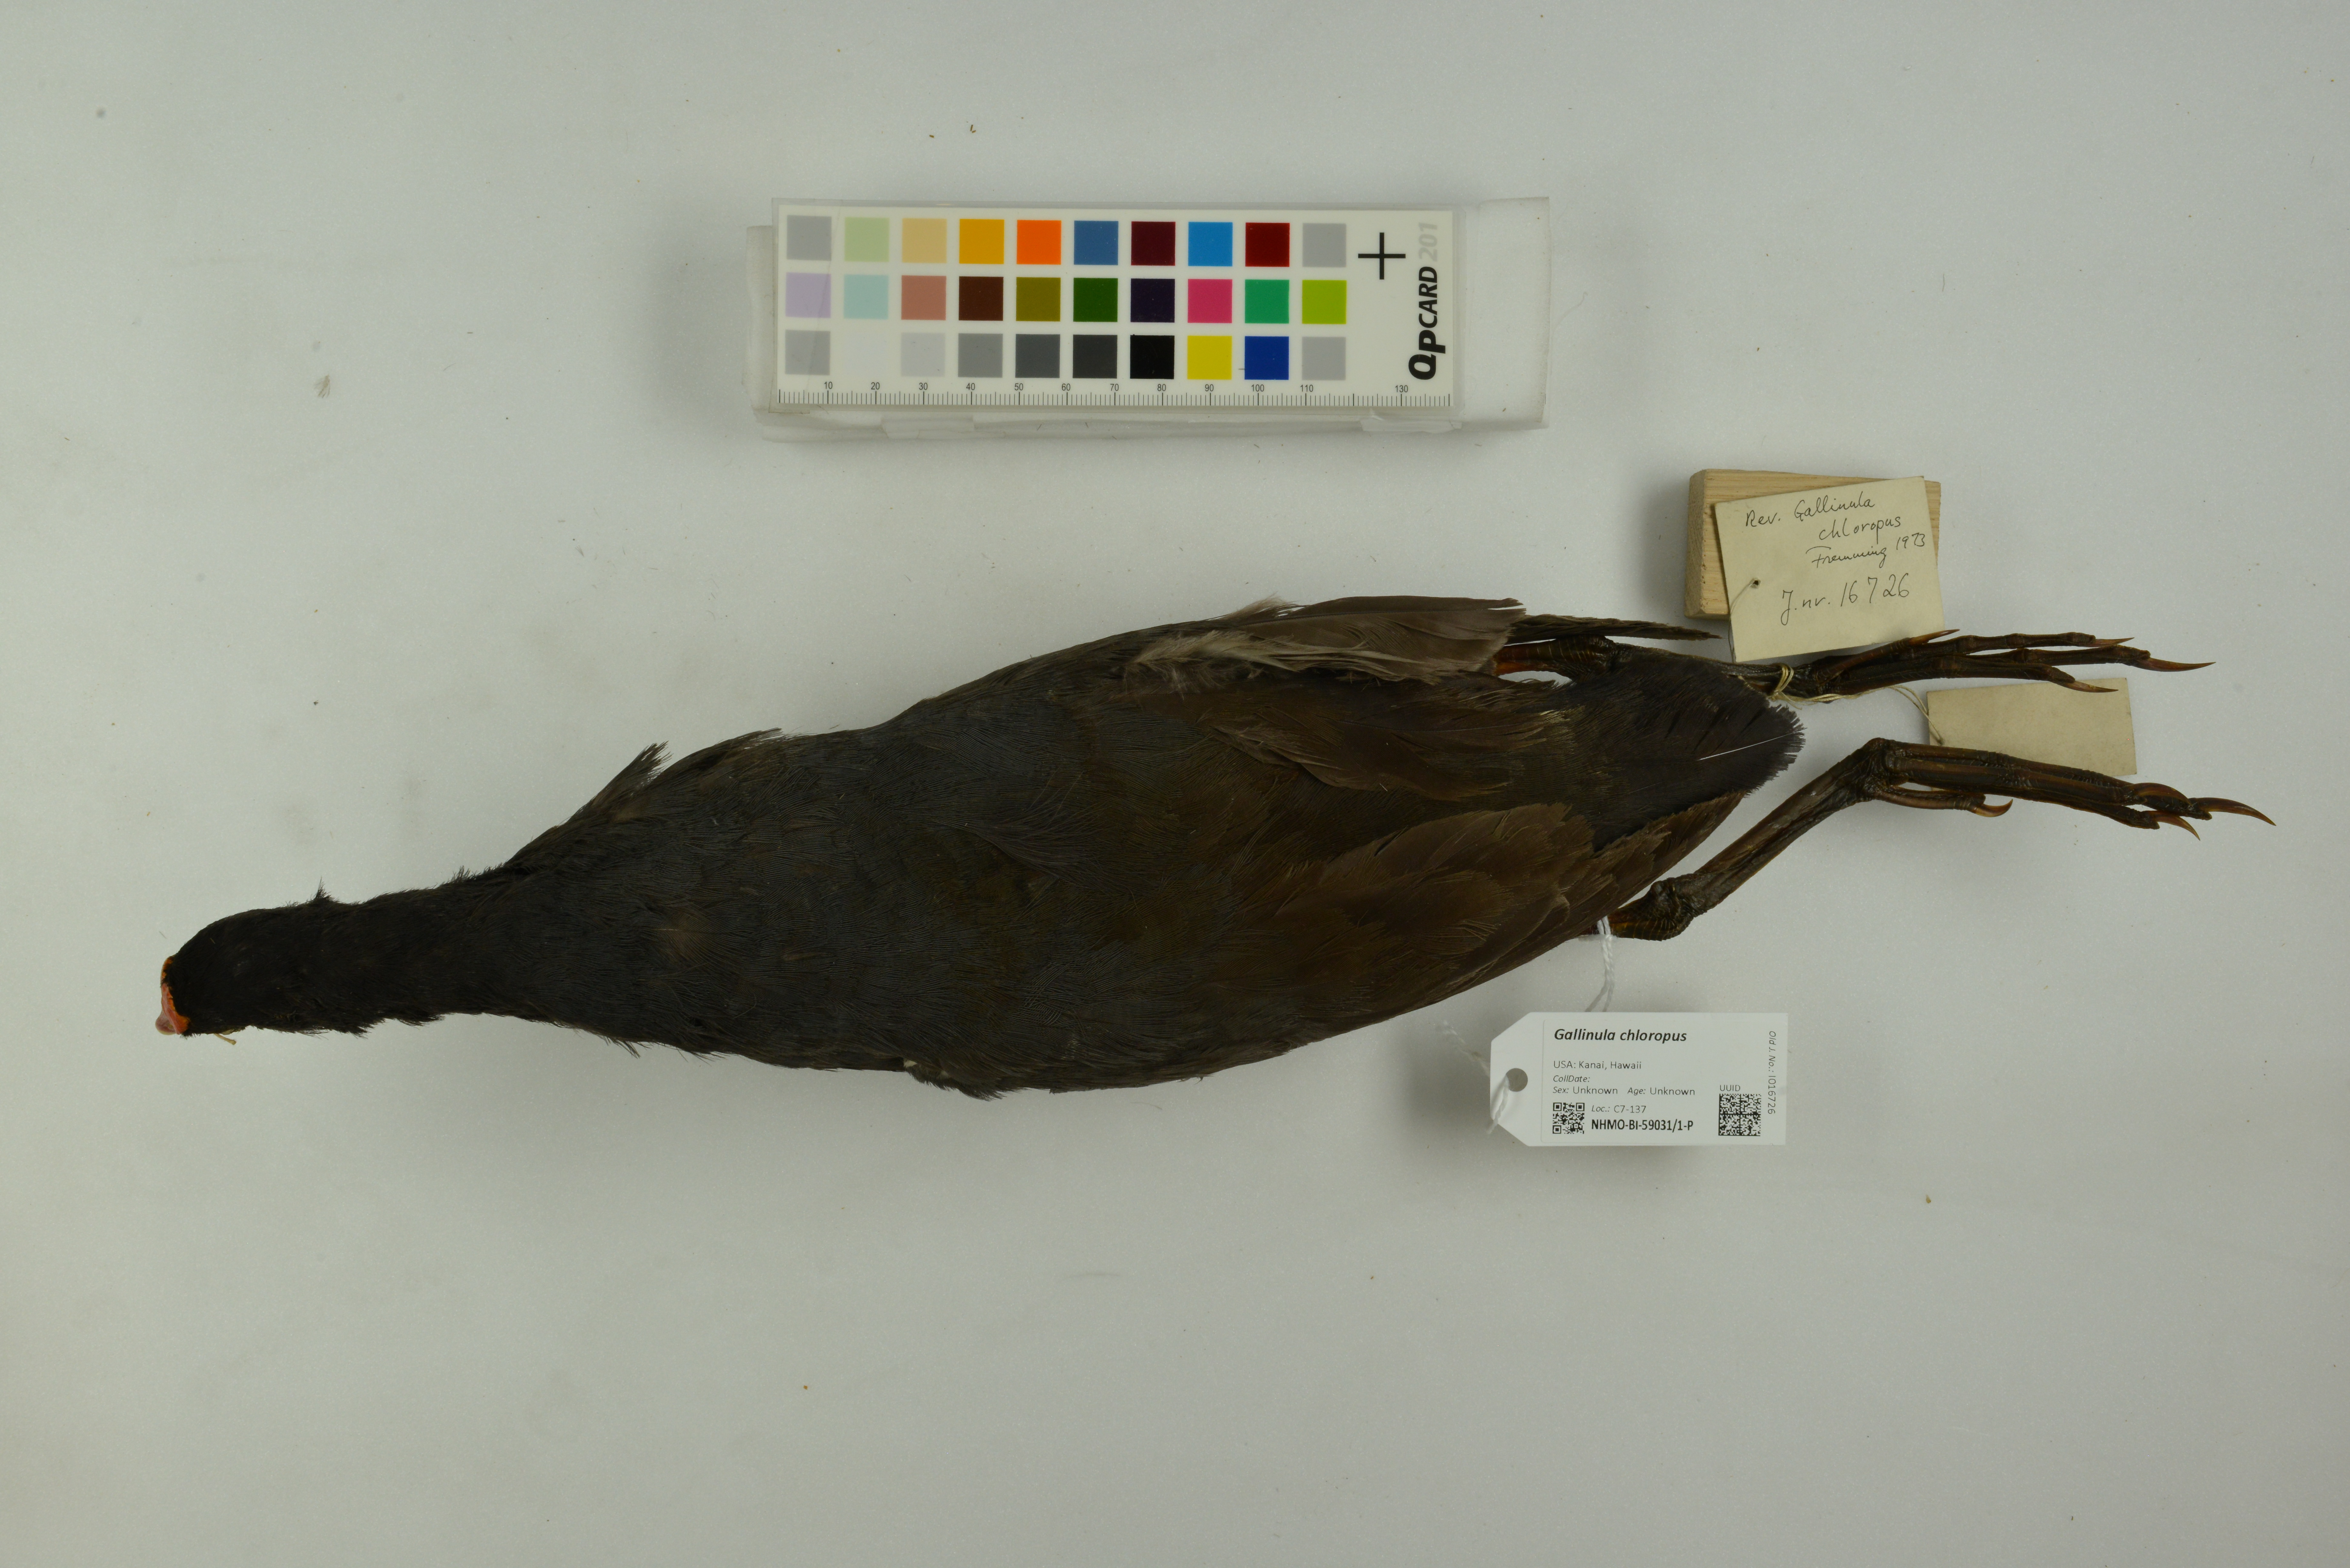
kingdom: Animalia
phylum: Chordata
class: Aves
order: Gruiformes
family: Rallidae
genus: Gallinula
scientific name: Gallinula chloropus
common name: Common moorhen
